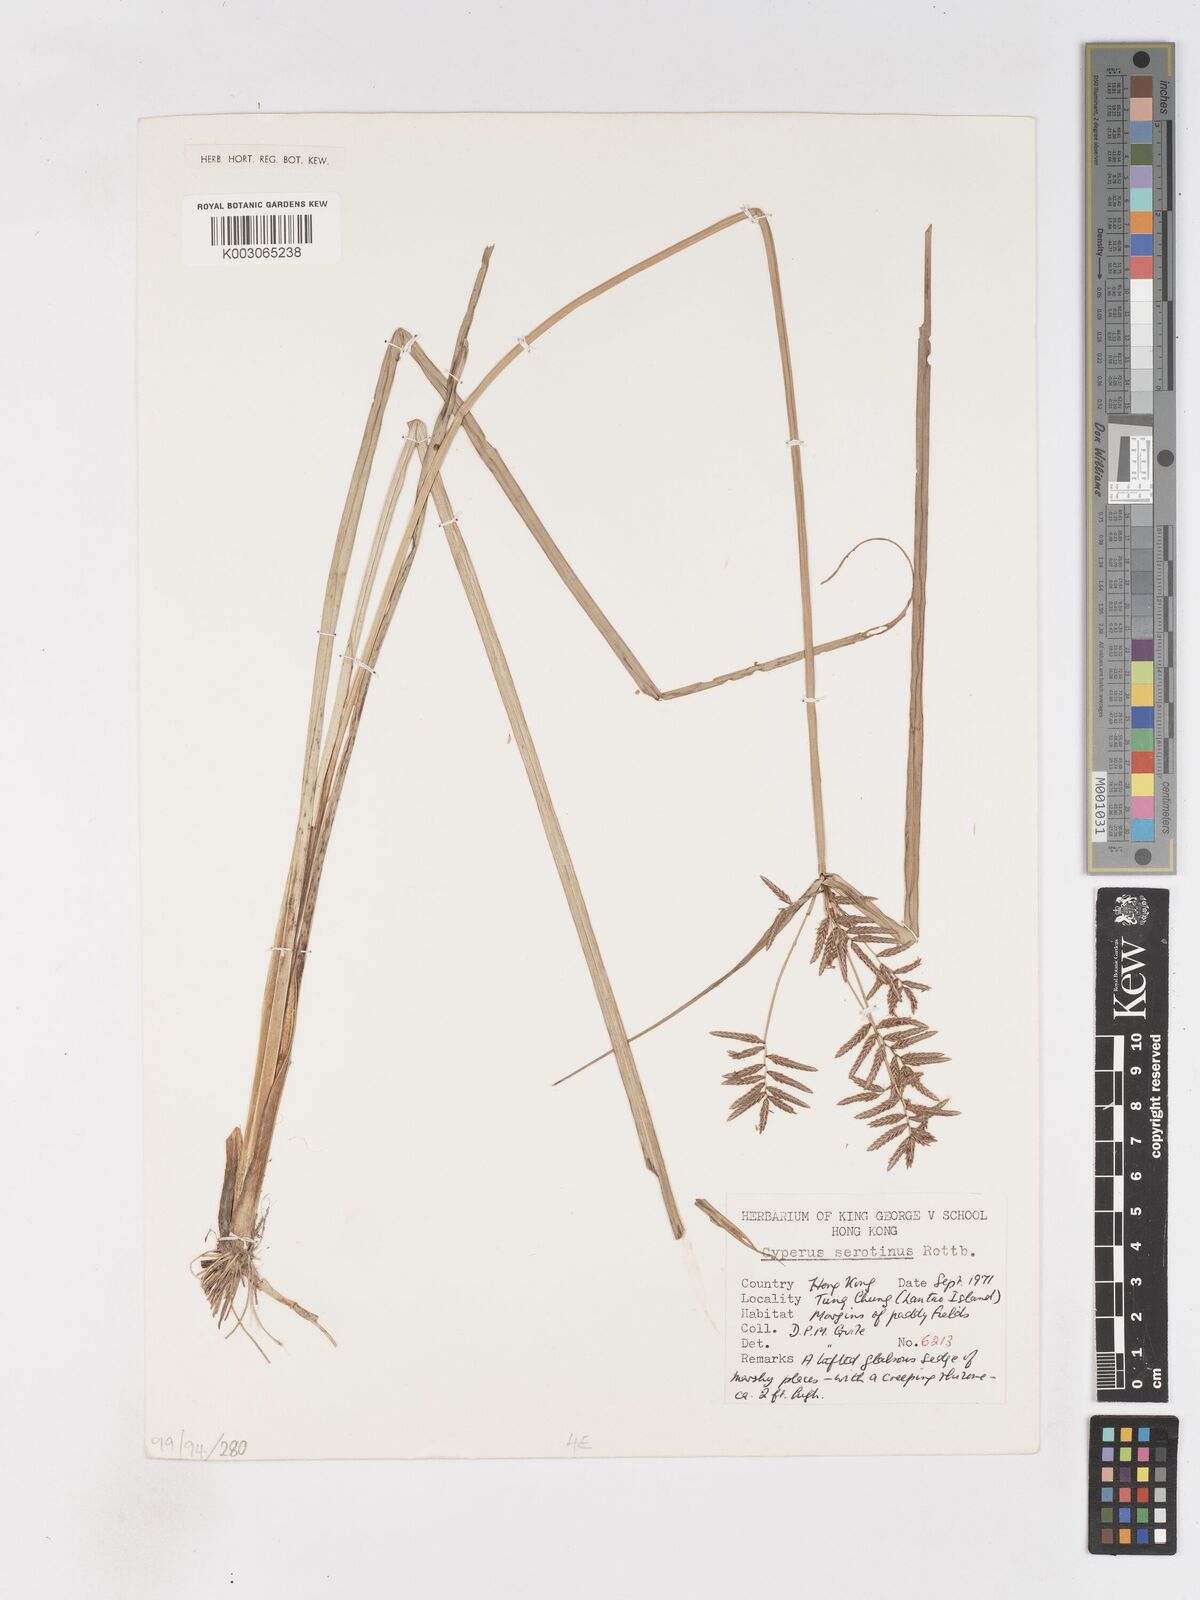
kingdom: Plantae
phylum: Tracheophyta
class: Liliopsida
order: Poales
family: Cyperaceae
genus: Cyperus
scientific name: Cyperus serotinus
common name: Tidalmarsh flatsedge
